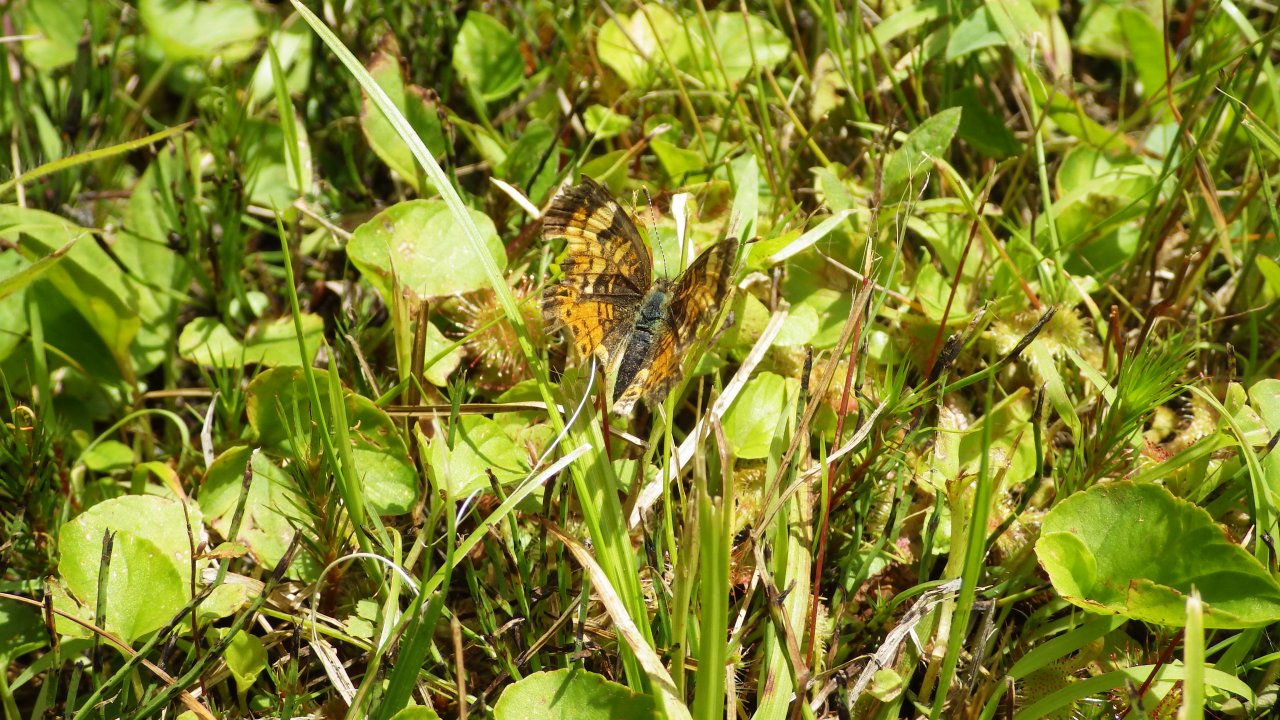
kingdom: Animalia
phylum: Arthropoda
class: Insecta
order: Lepidoptera
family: Nymphalidae
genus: Phyciodes
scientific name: Phyciodes tharos
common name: Northern Crescent
